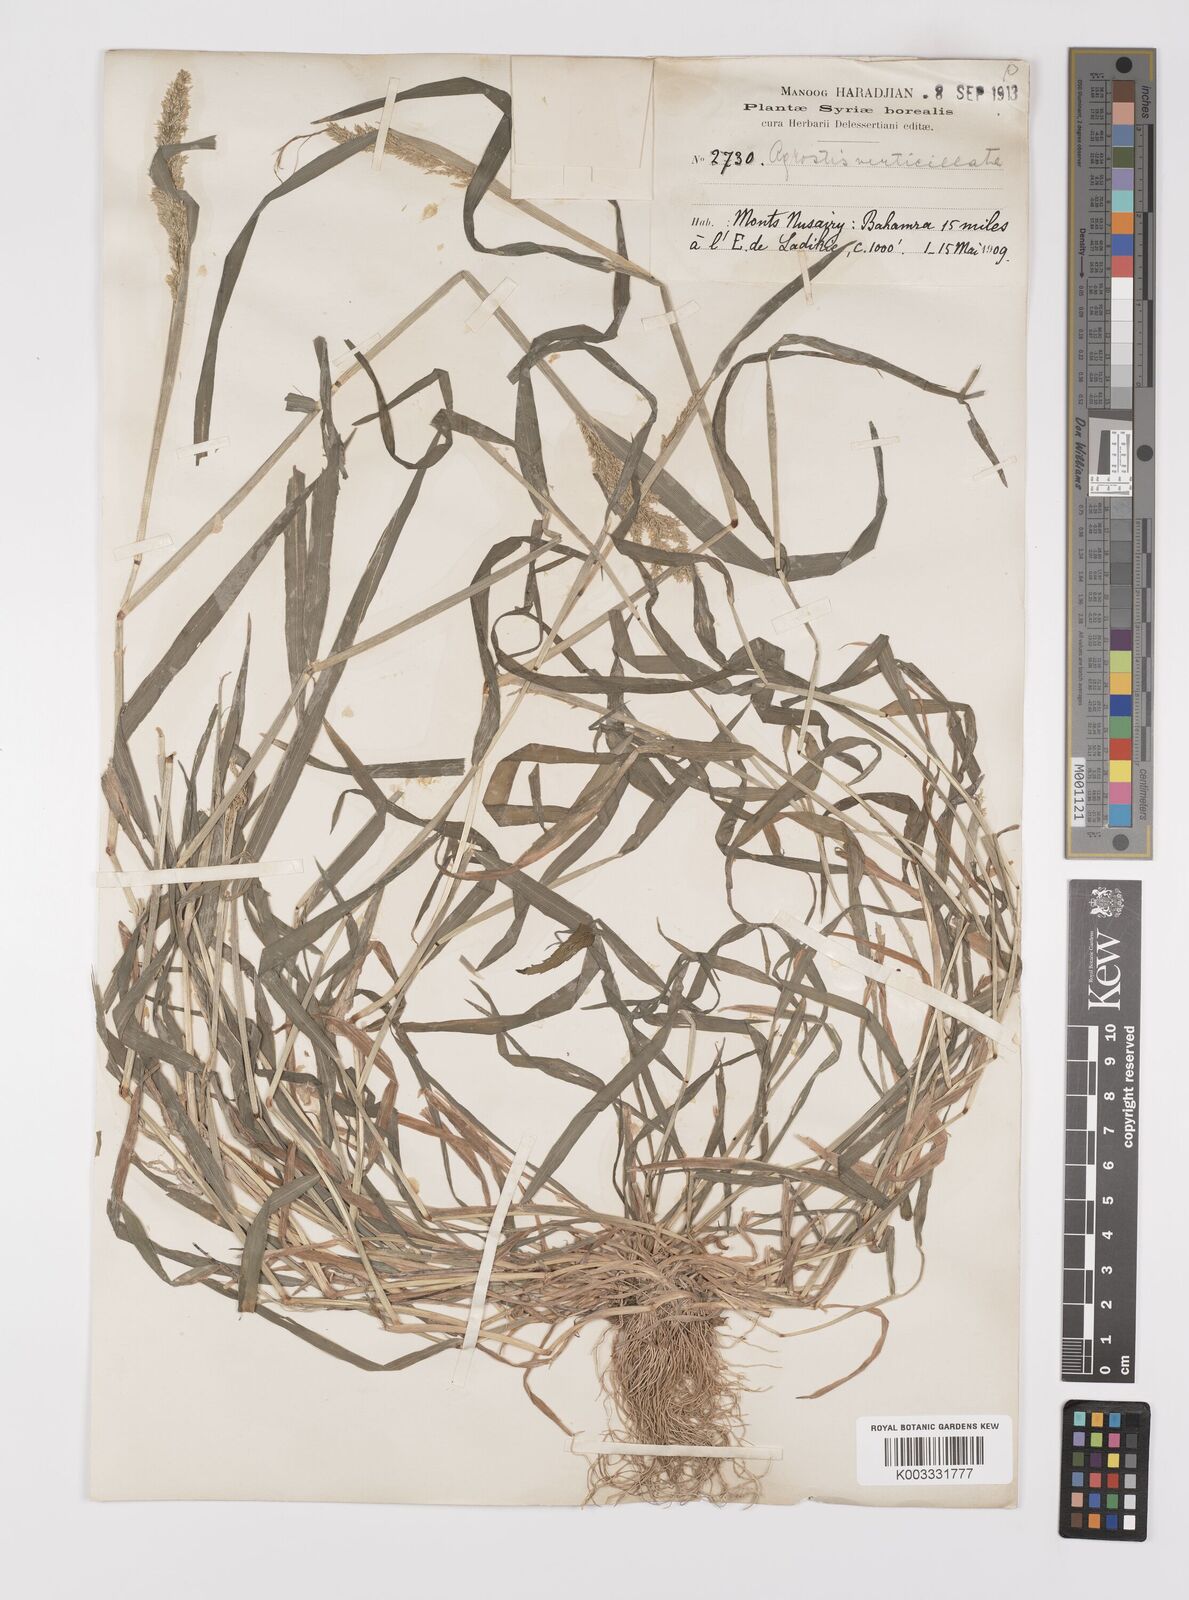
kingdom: Plantae
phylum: Tracheophyta
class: Liliopsida
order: Poales
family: Poaceae
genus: Polypogon
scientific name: Polypogon viridis
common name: Water bent
